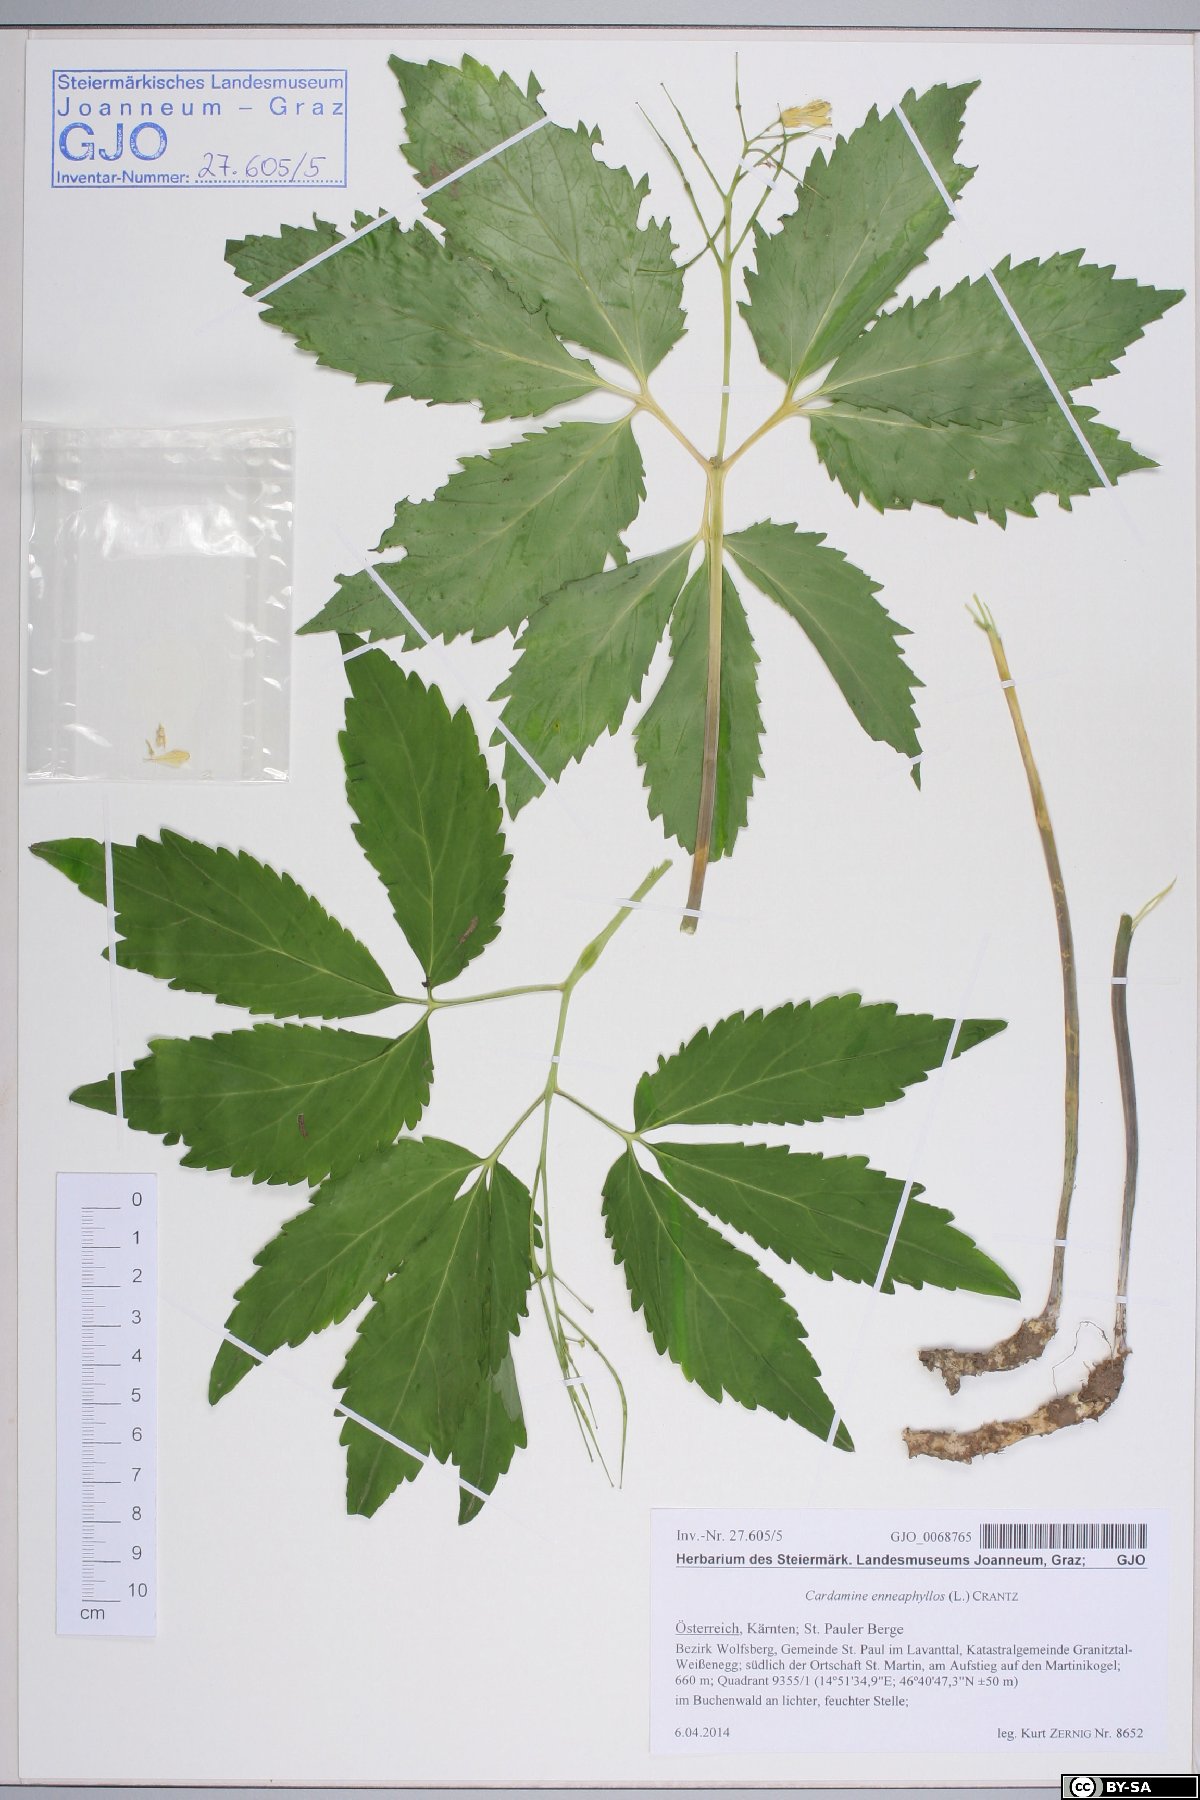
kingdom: Plantae
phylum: Tracheophyta
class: Magnoliopsida
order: Brassicales
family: Brassicaceae
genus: Cardamine
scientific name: Cardamine enneaphyllos
